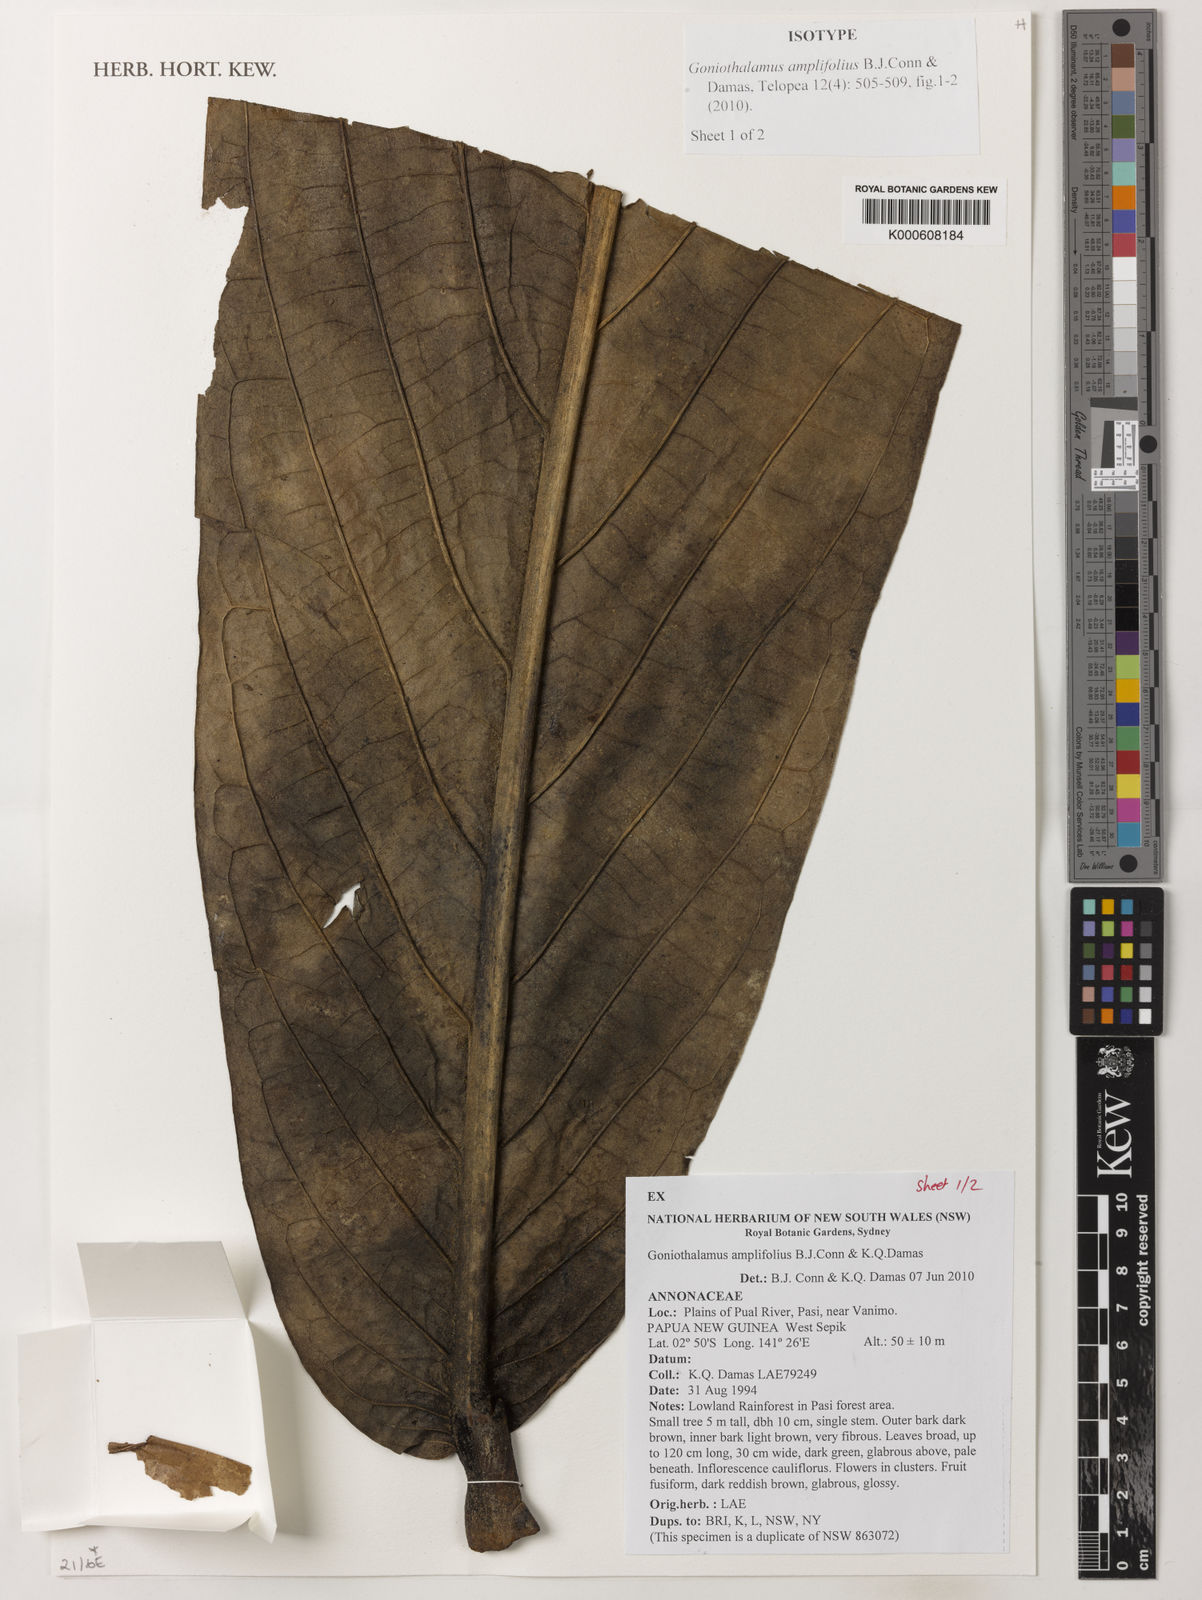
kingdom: Plantae
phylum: Tracheophyta
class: Magnoliopsida
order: Magnoliales
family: Annonaceae
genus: Goniothalamus
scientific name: Goniothalamus amplifolius
